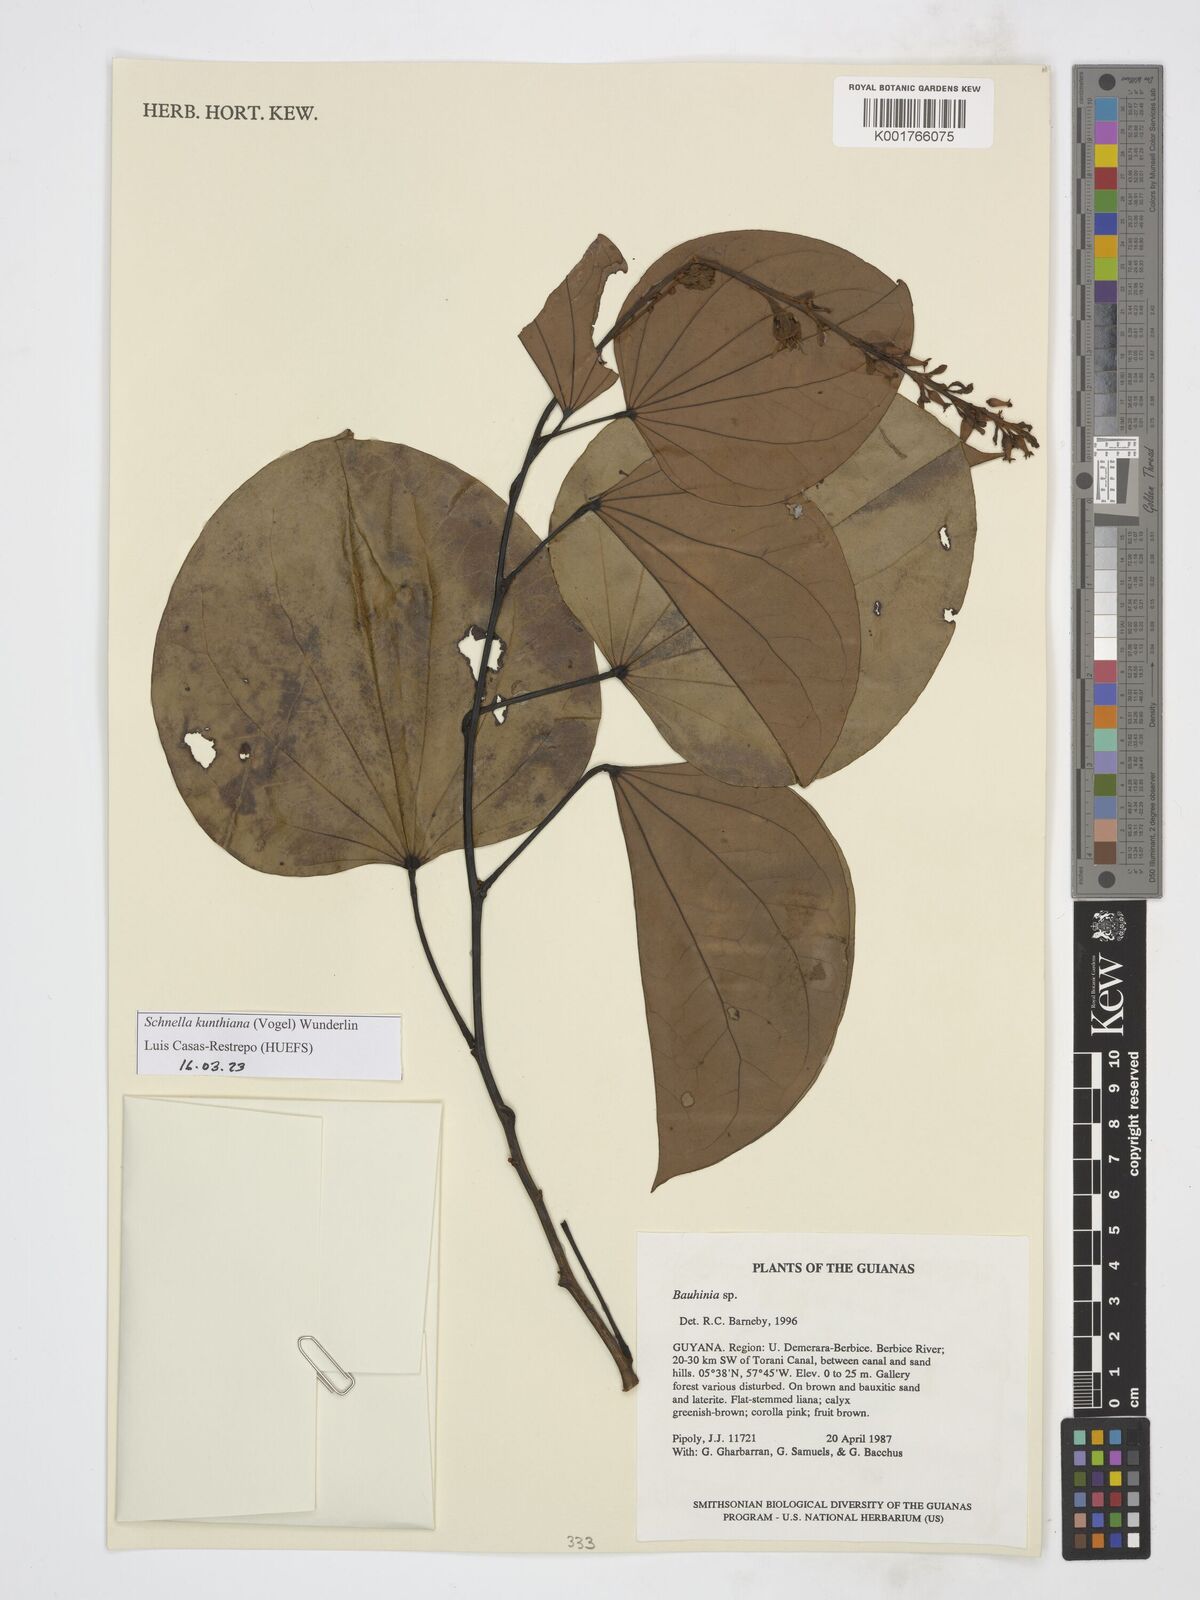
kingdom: Plantae
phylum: Tracheophyta
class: Magnoliopsida
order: Fabales
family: Fabaceae
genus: Schnella
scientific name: Schnella kunthiana
